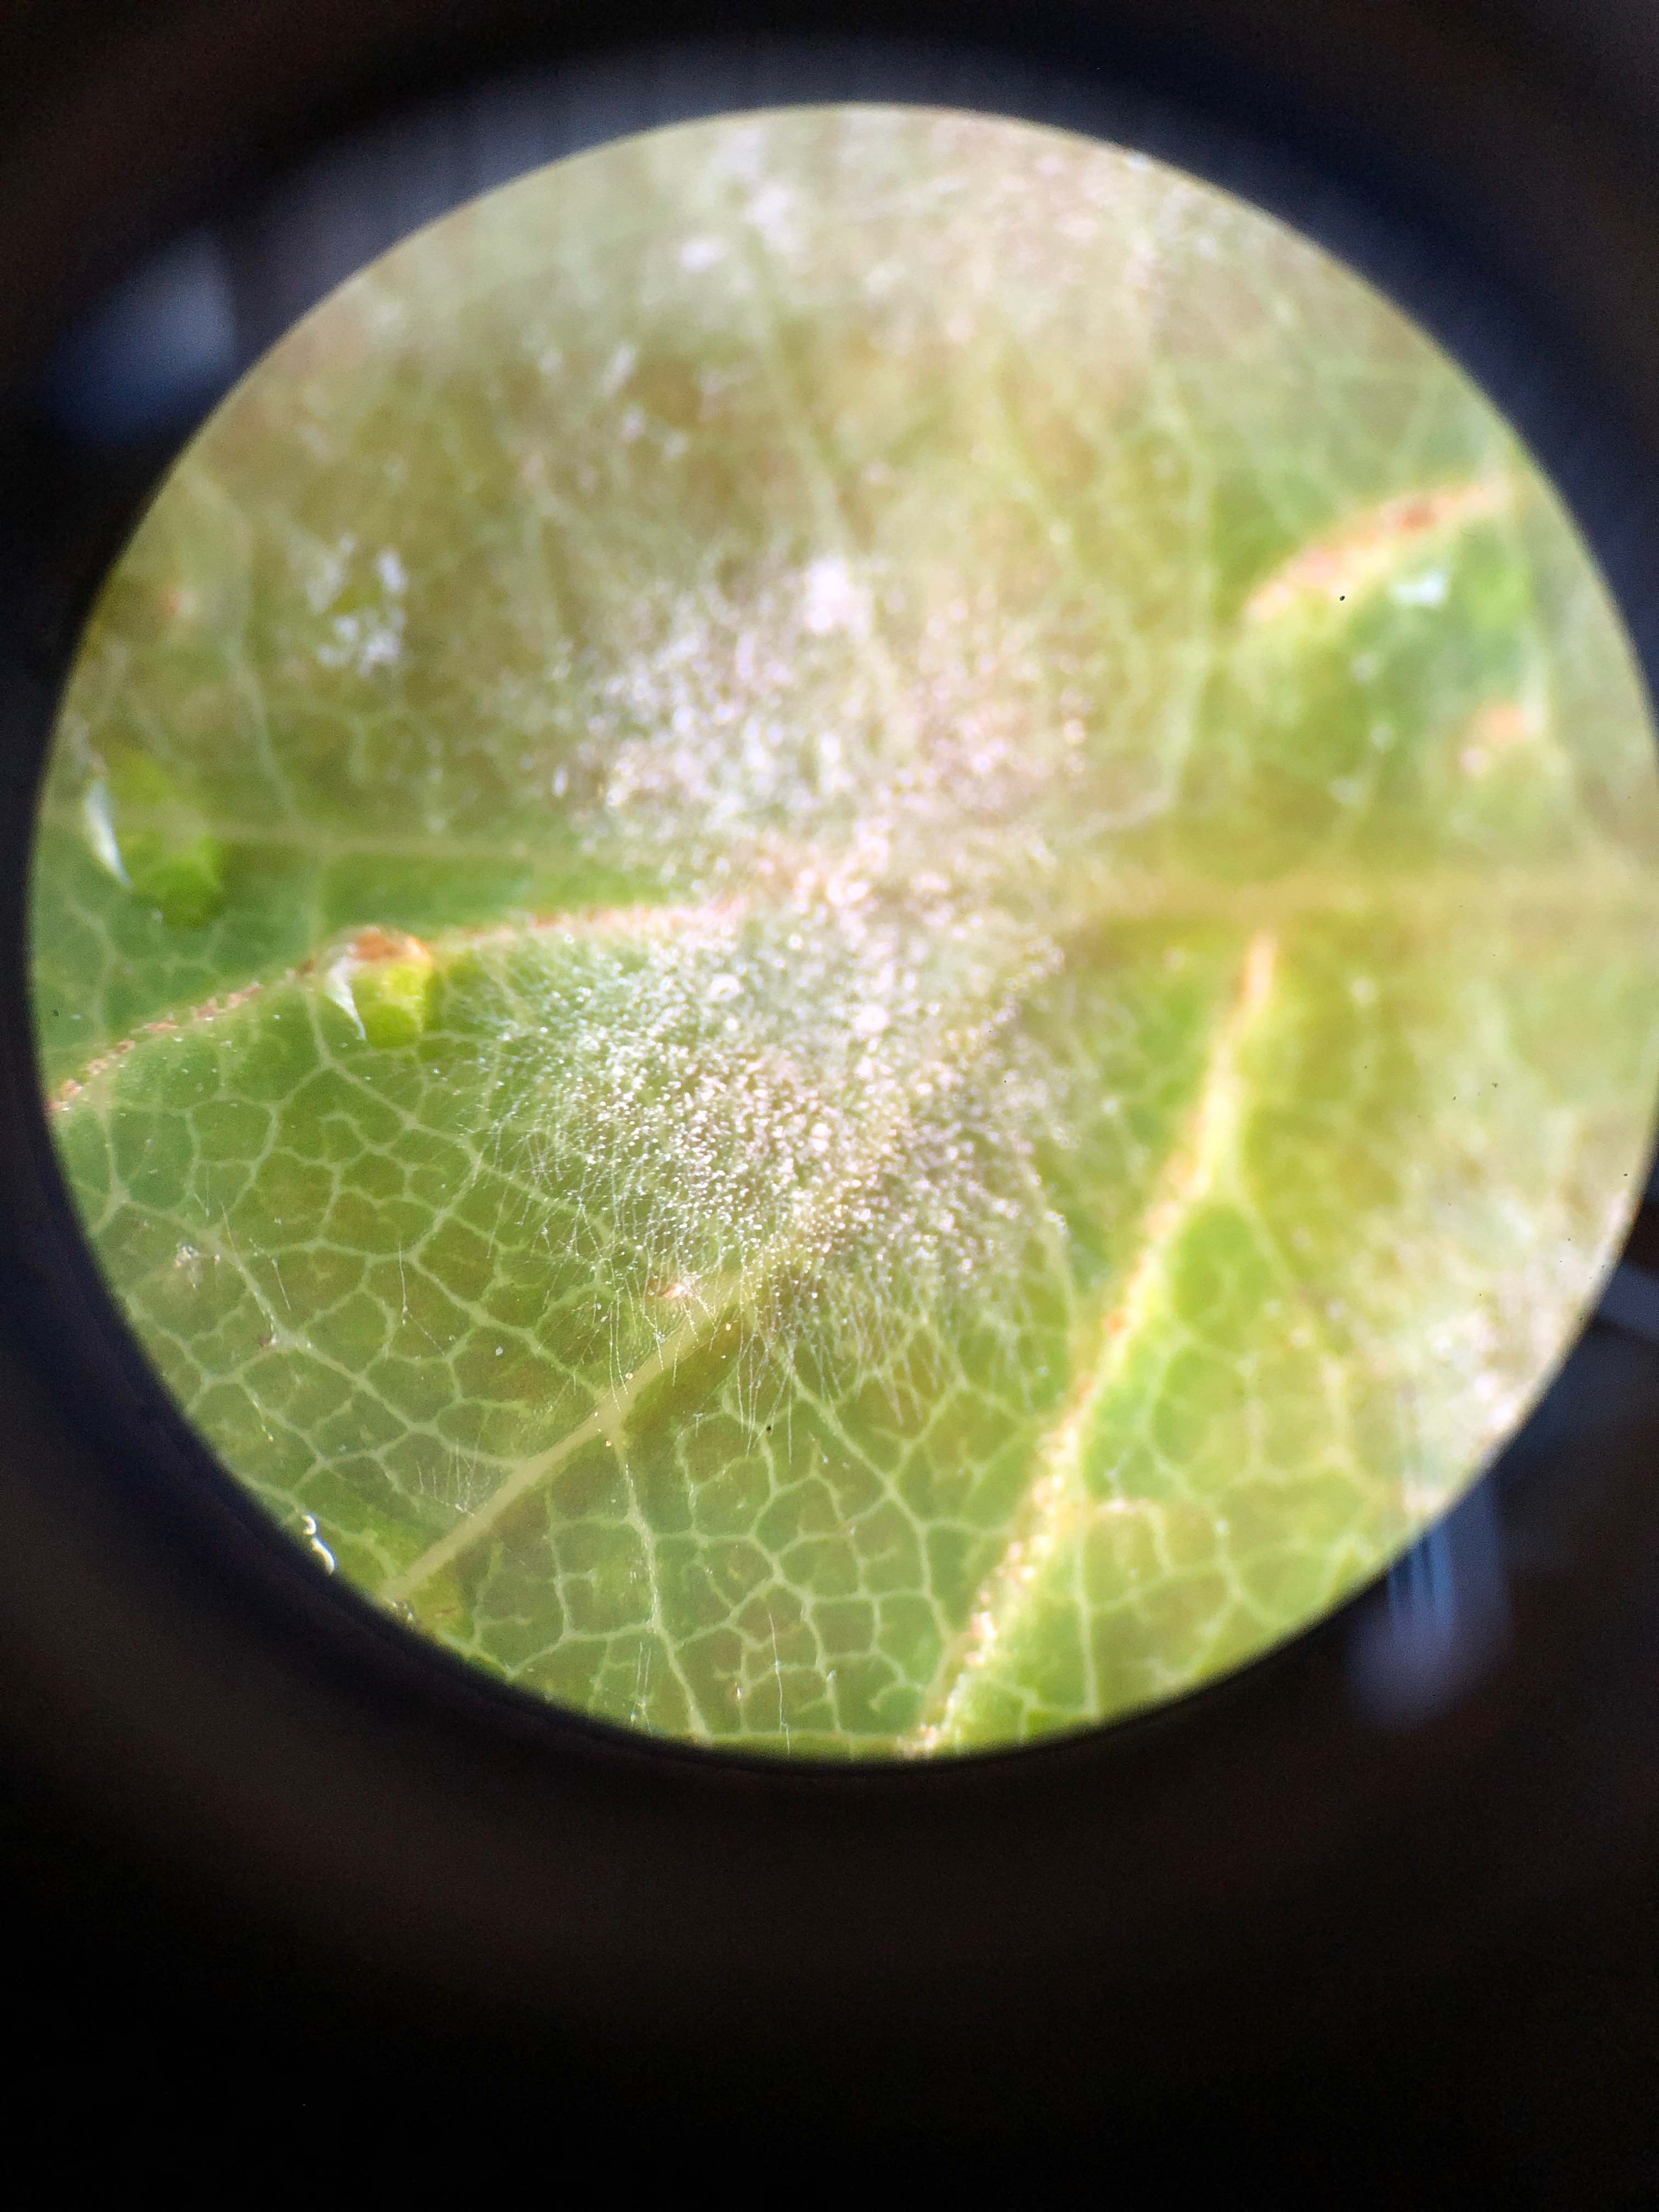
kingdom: Fungi
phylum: Ascomycota
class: Leotiomycetes
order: Helotiales
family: Erysiphaceae
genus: Erysiphe
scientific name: Erysiphe alphitoides
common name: ege-meldug
